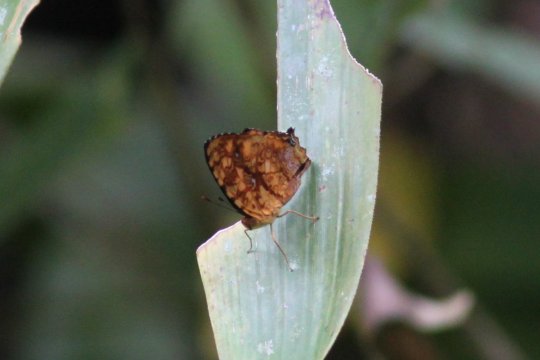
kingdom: Animalia
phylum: Arthropoda
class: Insecta
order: Lepidoptera
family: Nymphalidae
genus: Symbrenthia
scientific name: Symbrenthia hippoclus
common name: Common Jester
